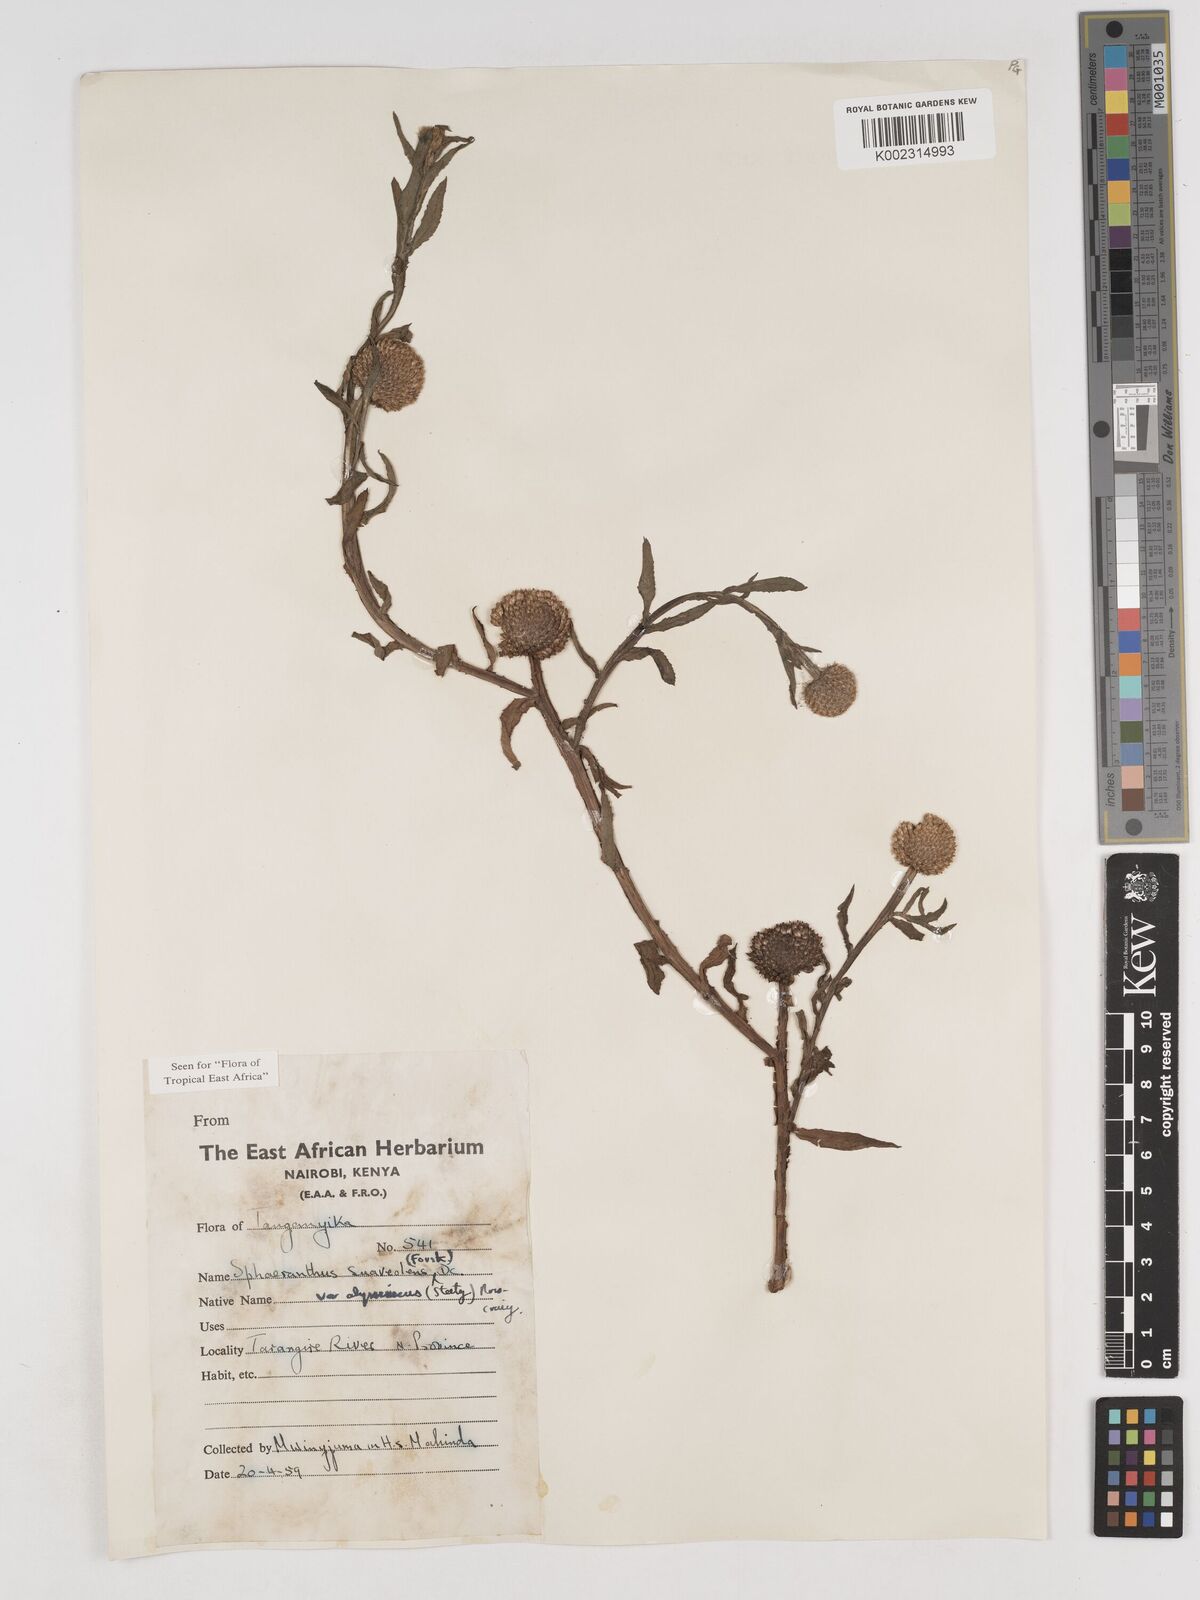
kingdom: Plantae
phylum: Tracheophyta
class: Magnoliopsida
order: Asterales
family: Asteraceae
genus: Sphaeranthus
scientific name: Sphaeranthus suaveolens
